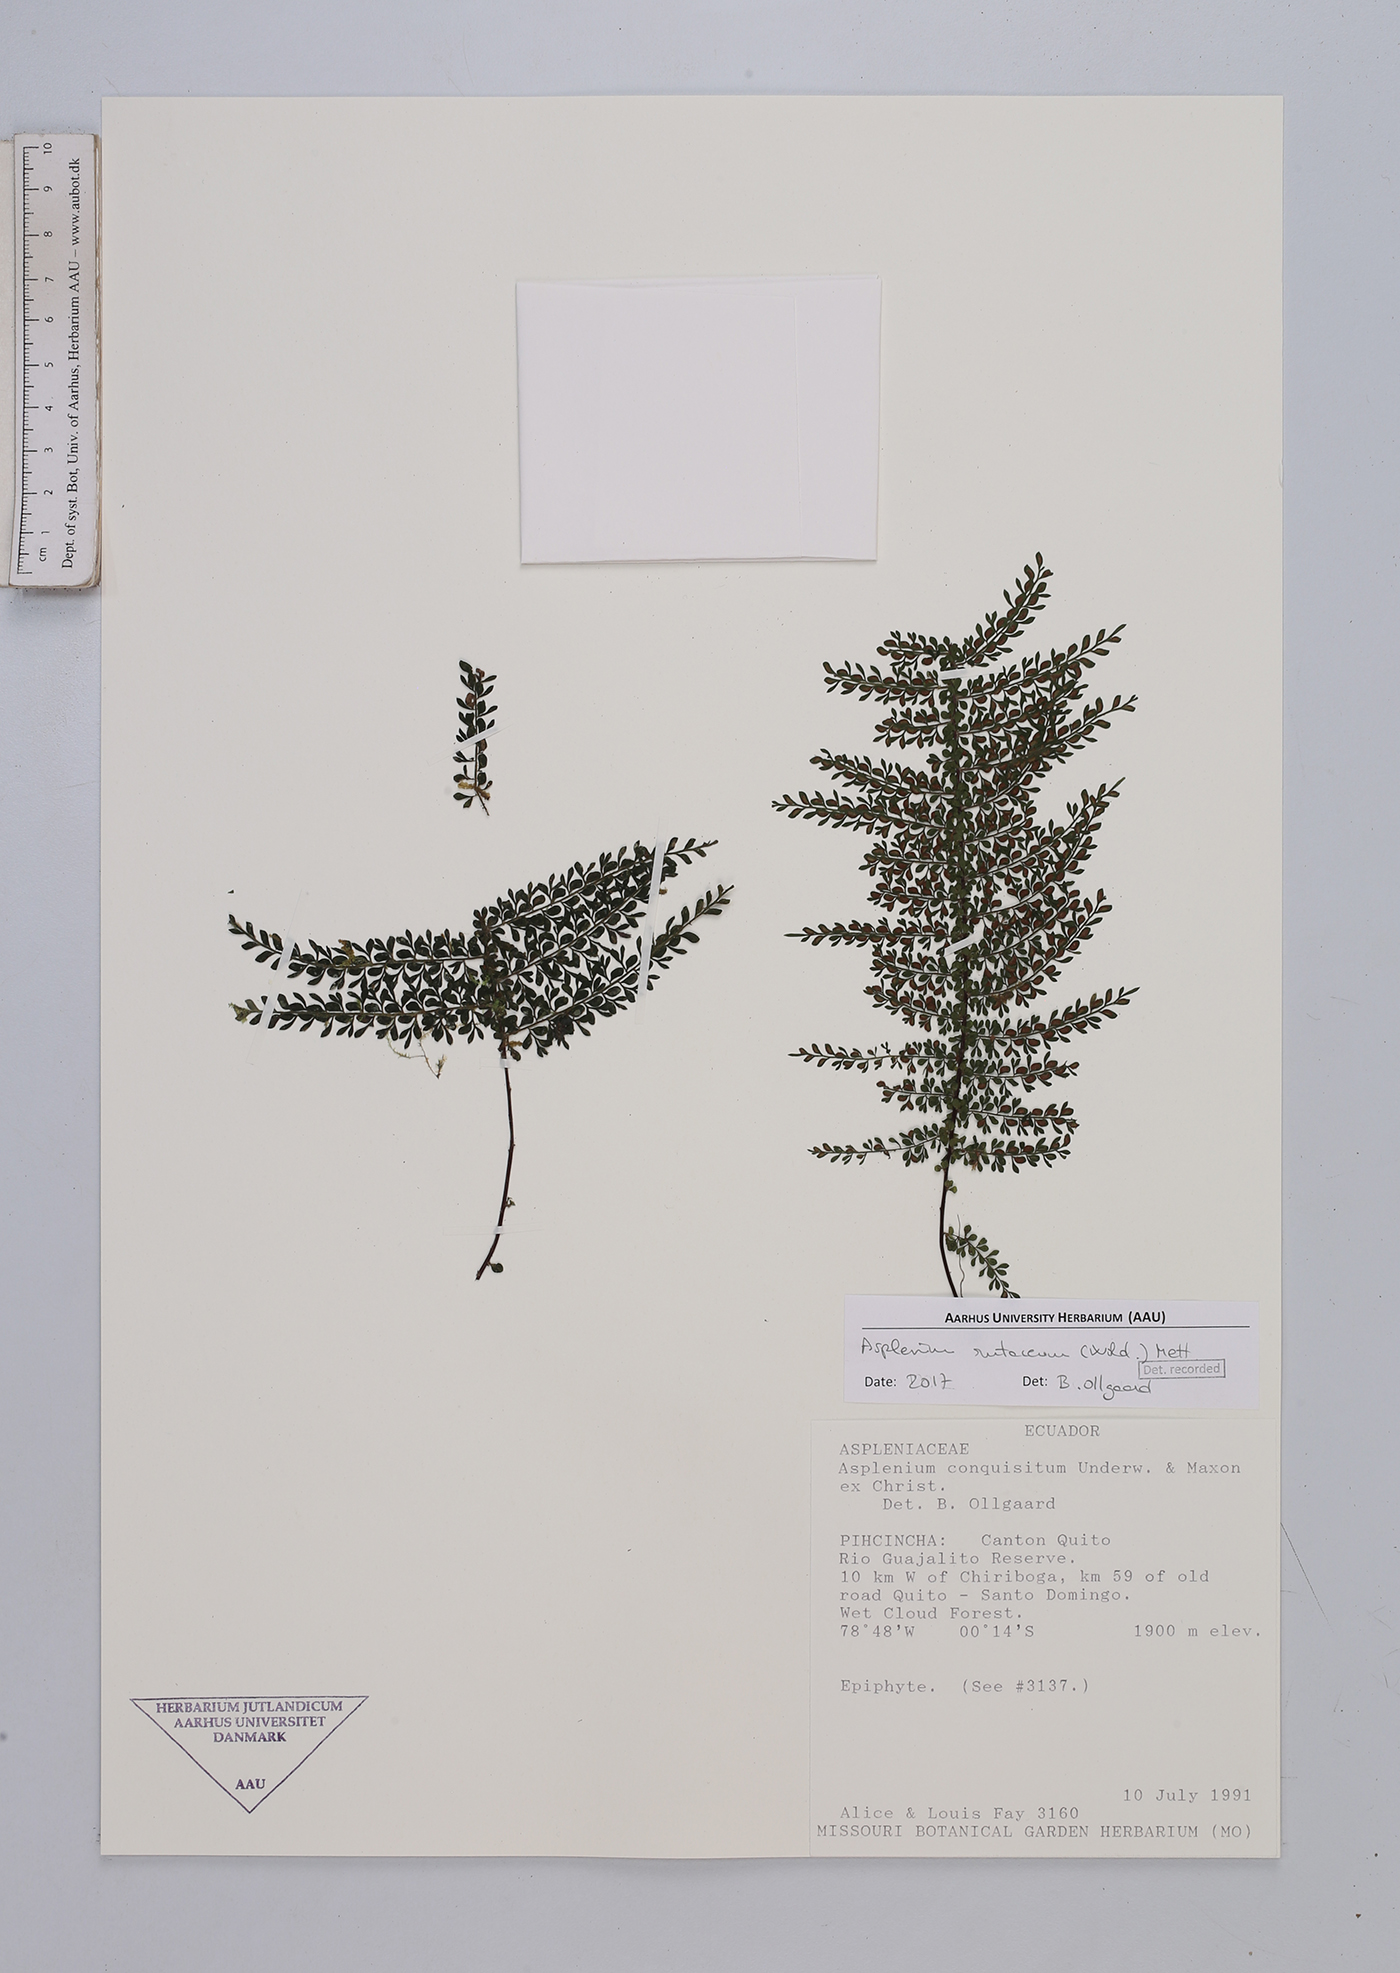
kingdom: Plantae
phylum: Tracheophyta
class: Polypodiopsida
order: Polypodiales
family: Aspleniaceae
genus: Asplenium
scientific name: Asplenium rutaceum
